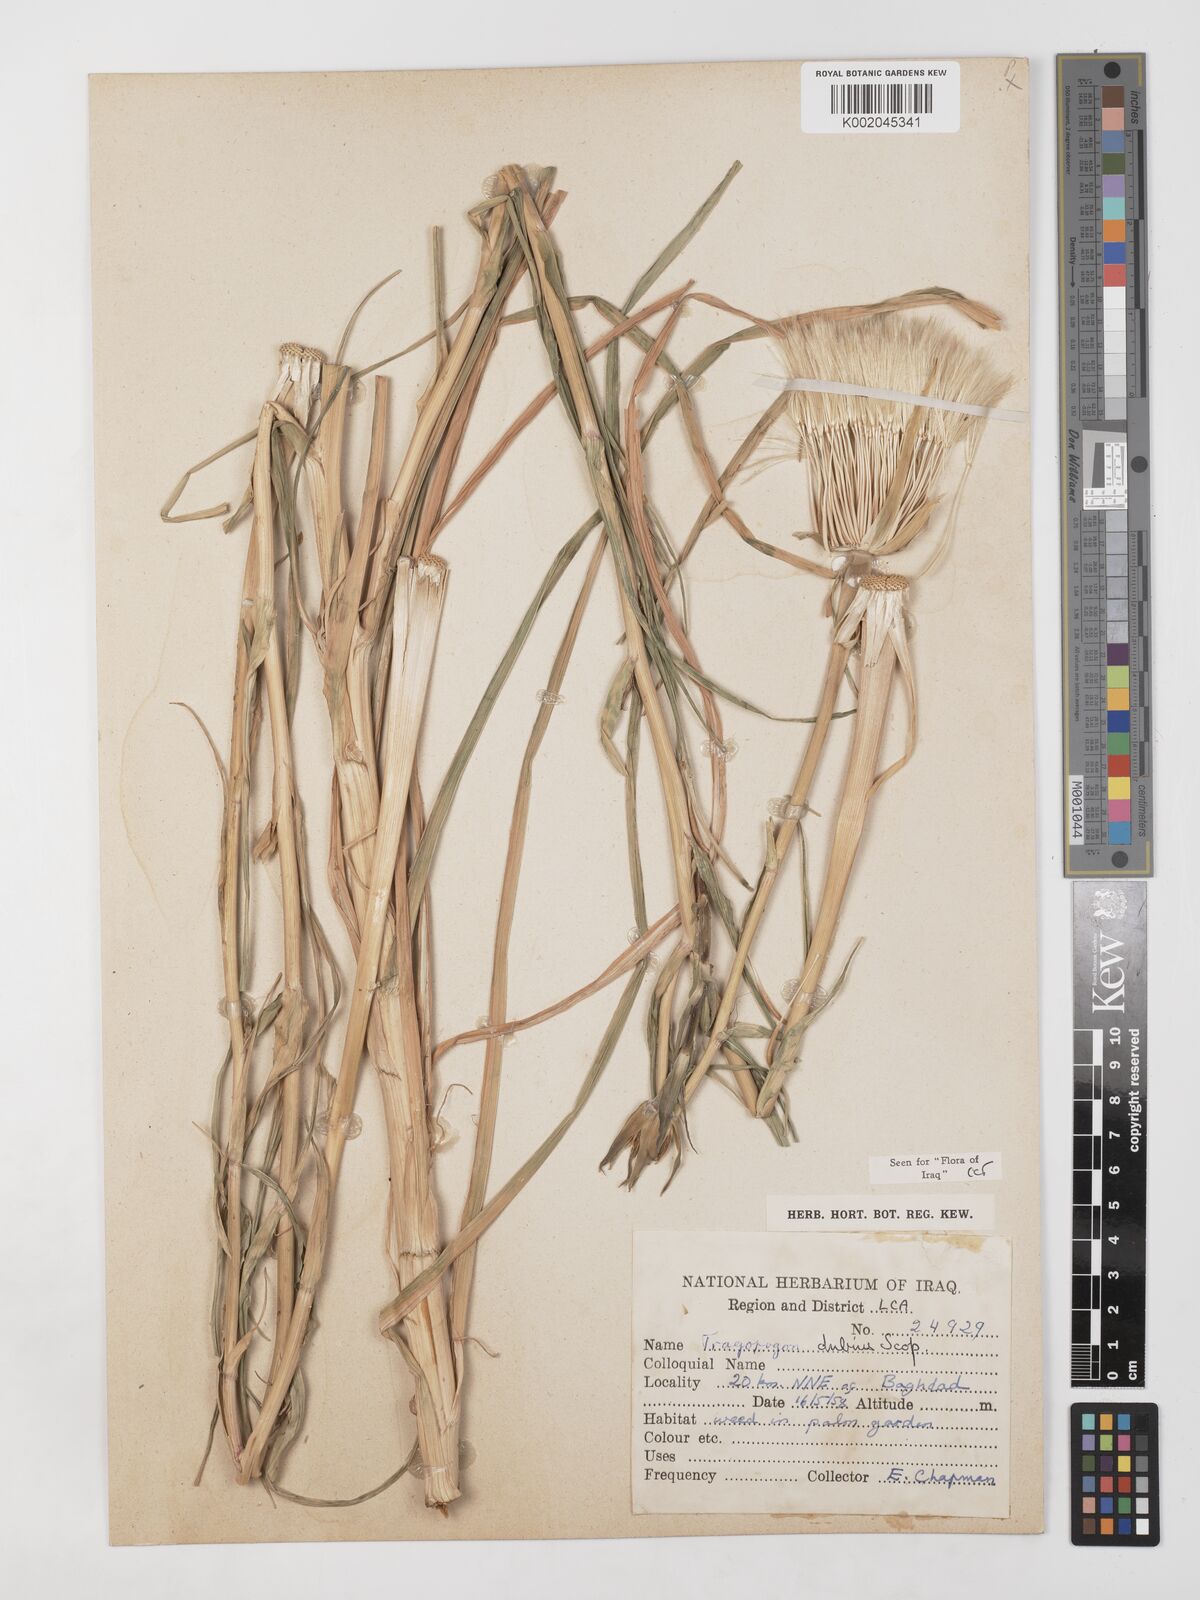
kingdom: Plantae
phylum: Tracheophyta
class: Magnoliopsida
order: Asterales
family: Asteraceae
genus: Tragopogon
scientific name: Tragopogon dubius
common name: Yellow salsify
